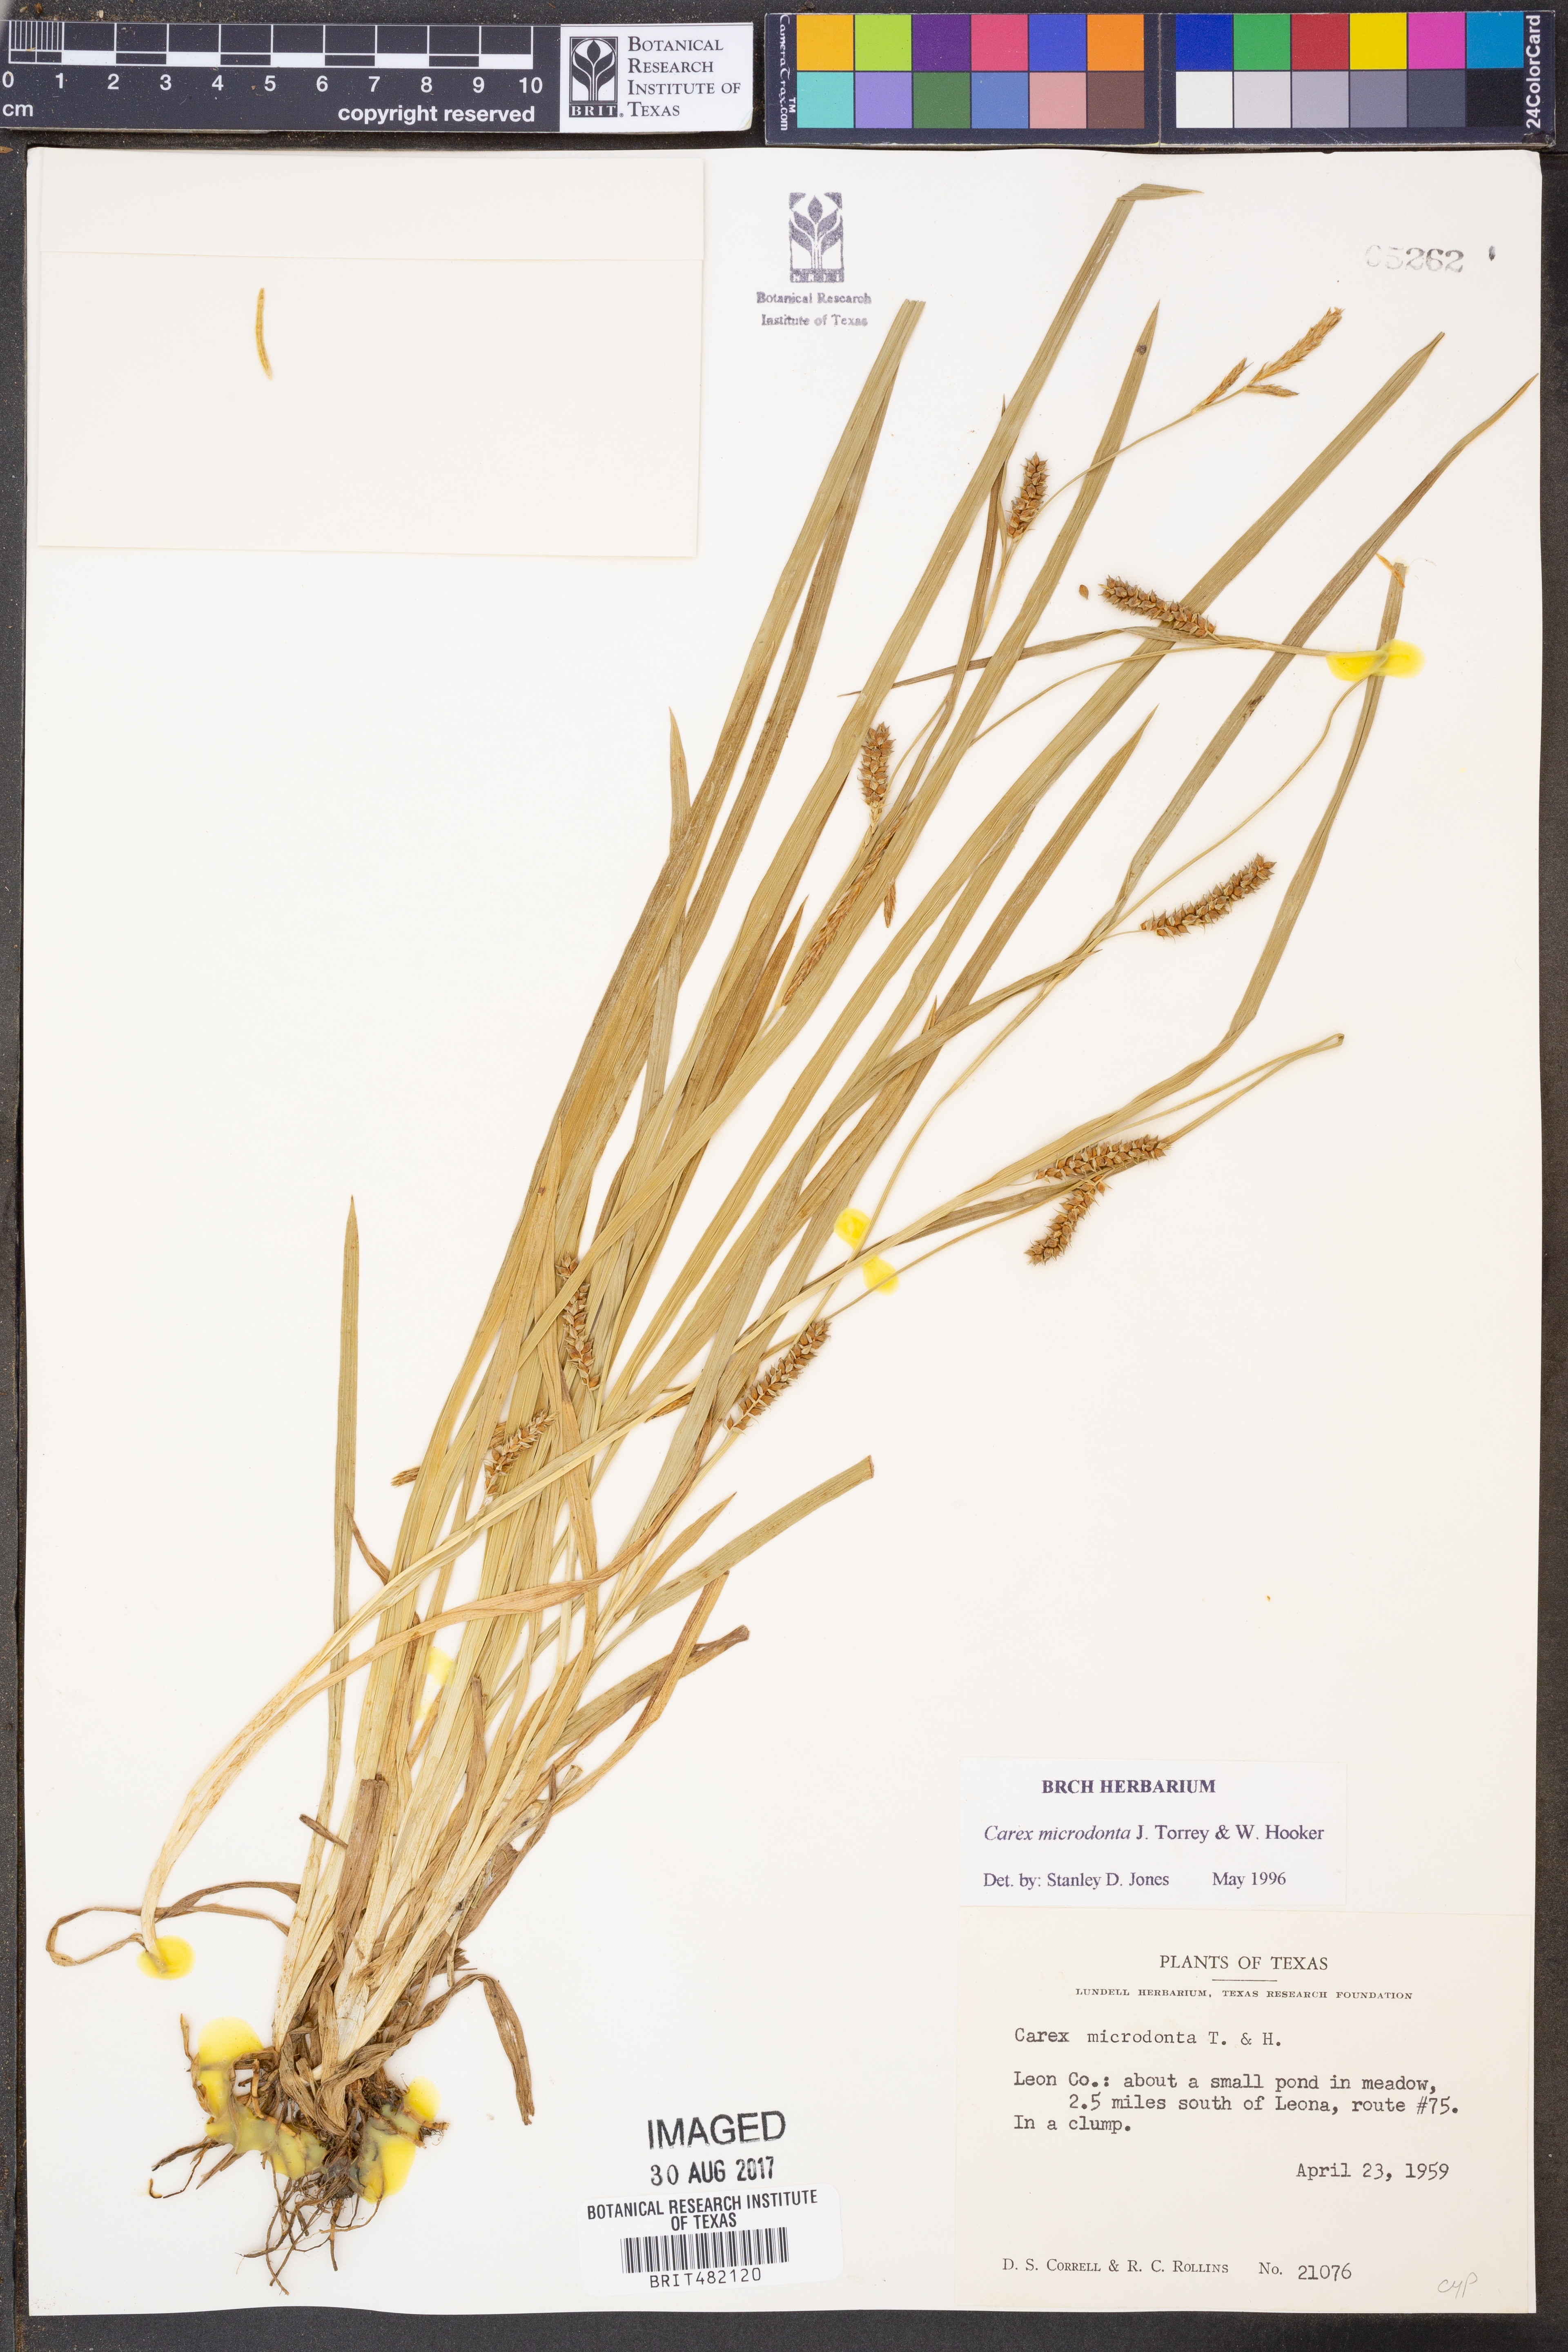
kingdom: Plantae
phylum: Tracheophyta
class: Liliopsida
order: Poales
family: Cyperaceae
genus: Carex
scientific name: Carex microdonta
